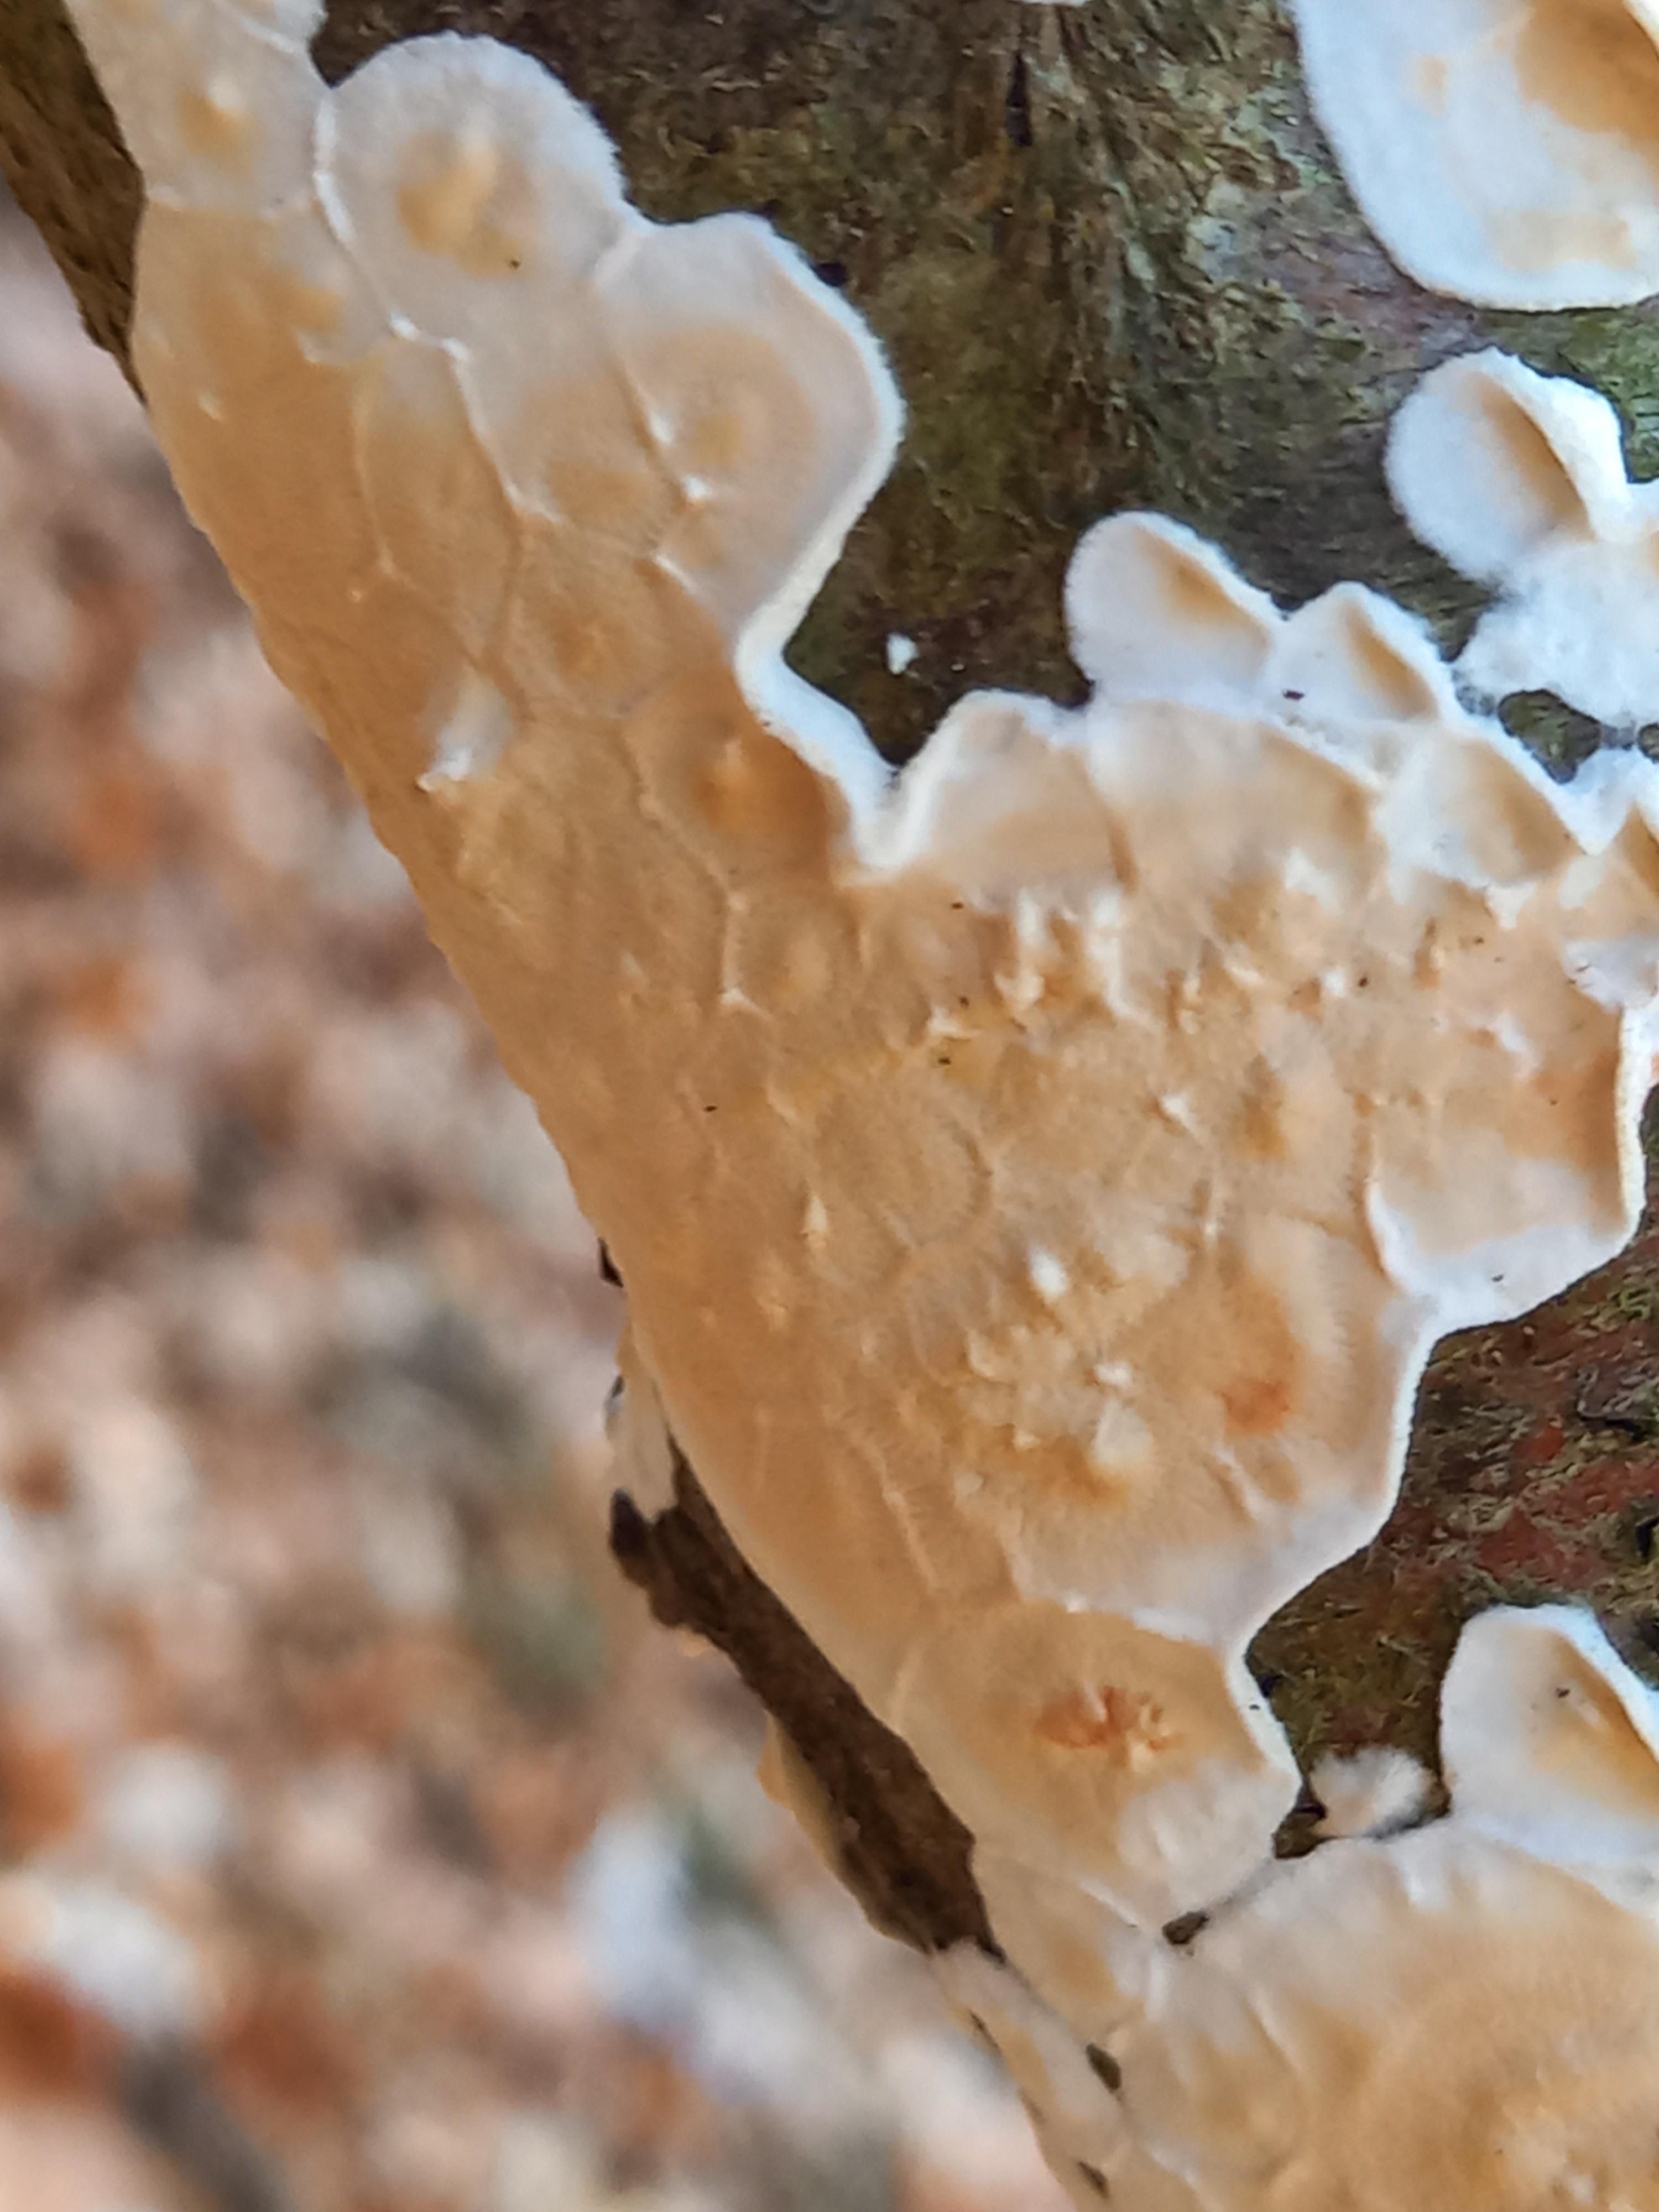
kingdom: Fungi
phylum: Basidiomycota
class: Agaricomycetes
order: Polyporales
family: Irpicaceae
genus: Byssomerulius
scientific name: Byssomerulius corium
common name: læder-åresvamp
